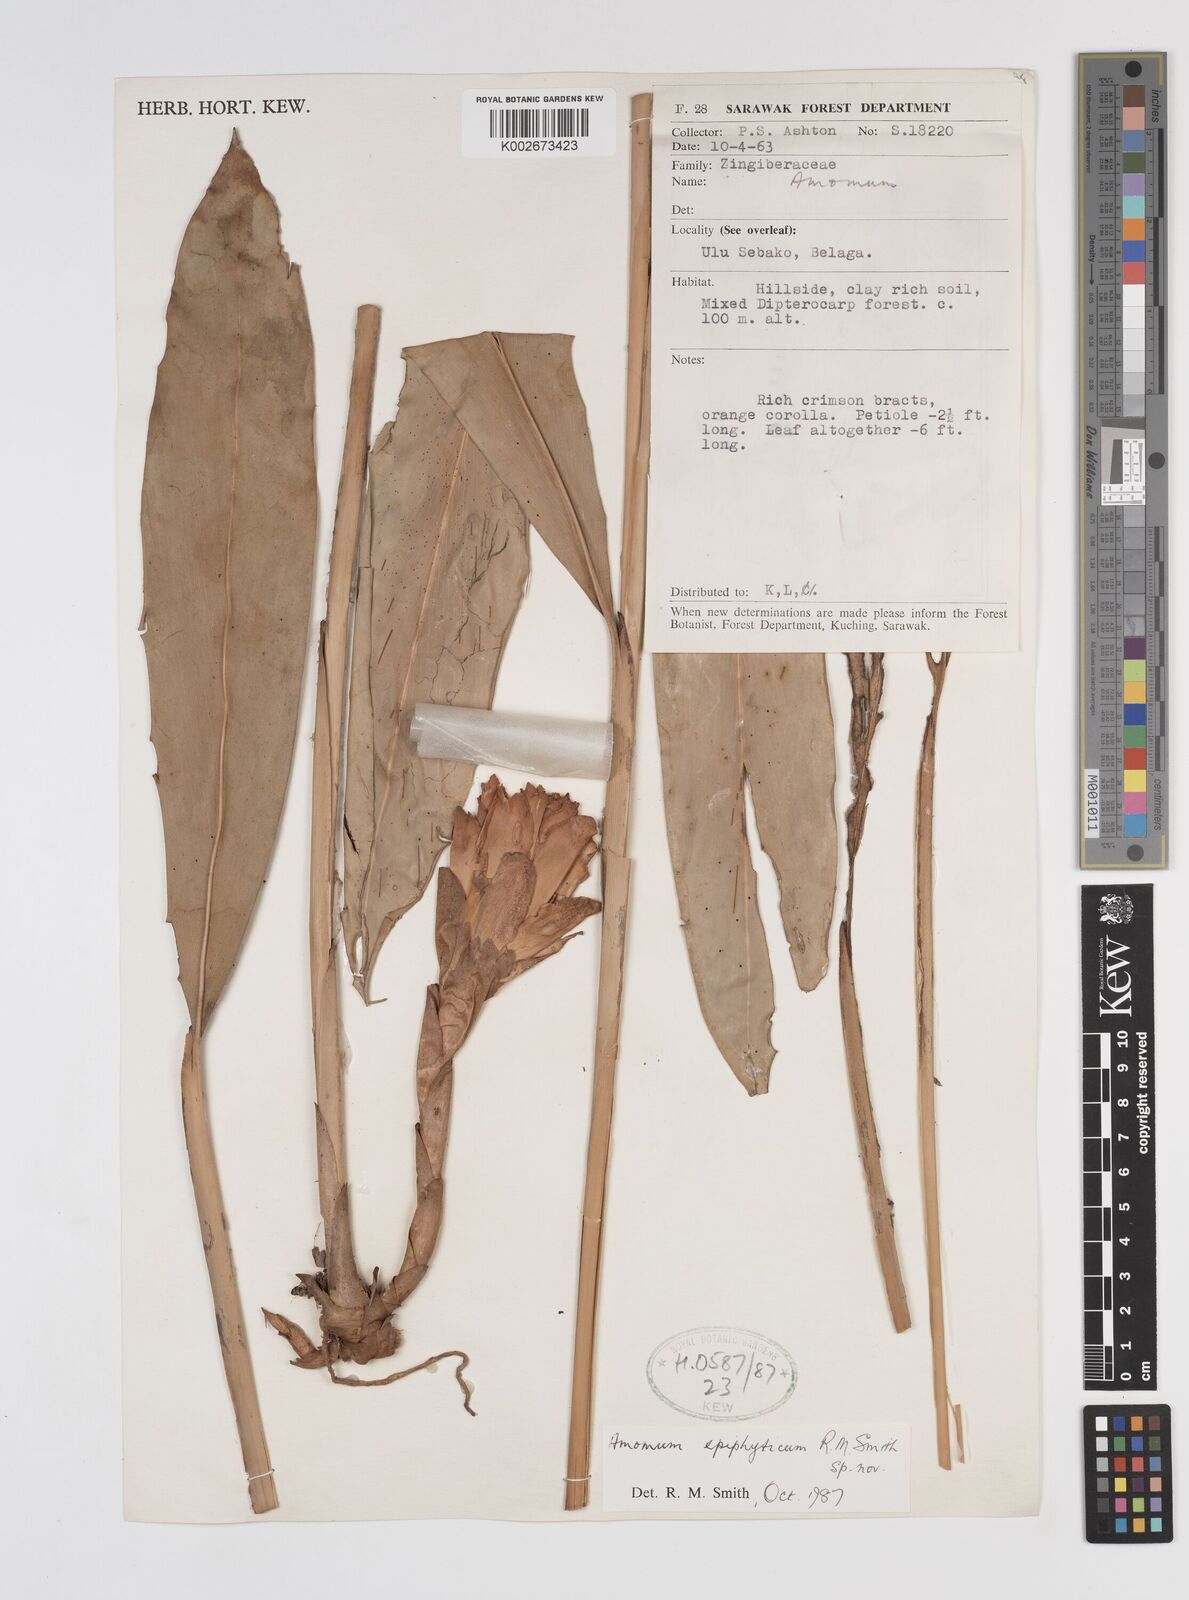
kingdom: Plantae
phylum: Tracheophyta
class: Liliopsida
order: Zingiberales
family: Zingiberaceae
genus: Epiamomum
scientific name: Epiamomum epiphyticum
